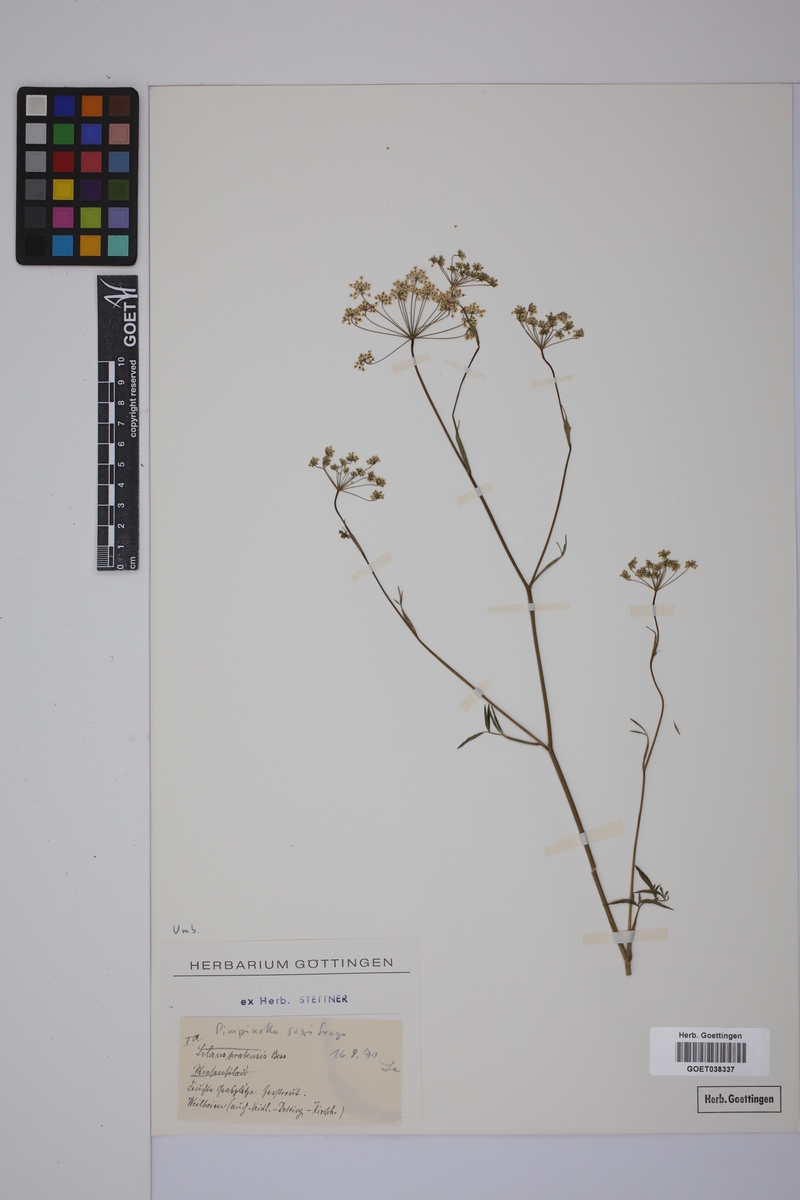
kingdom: Plantae
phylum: Tracheophyta
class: Magnoliopsida
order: Apiales
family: Apiaceae
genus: Pimpinella
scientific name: Pimpinella saxifraga
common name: Burnet-saxifrage
